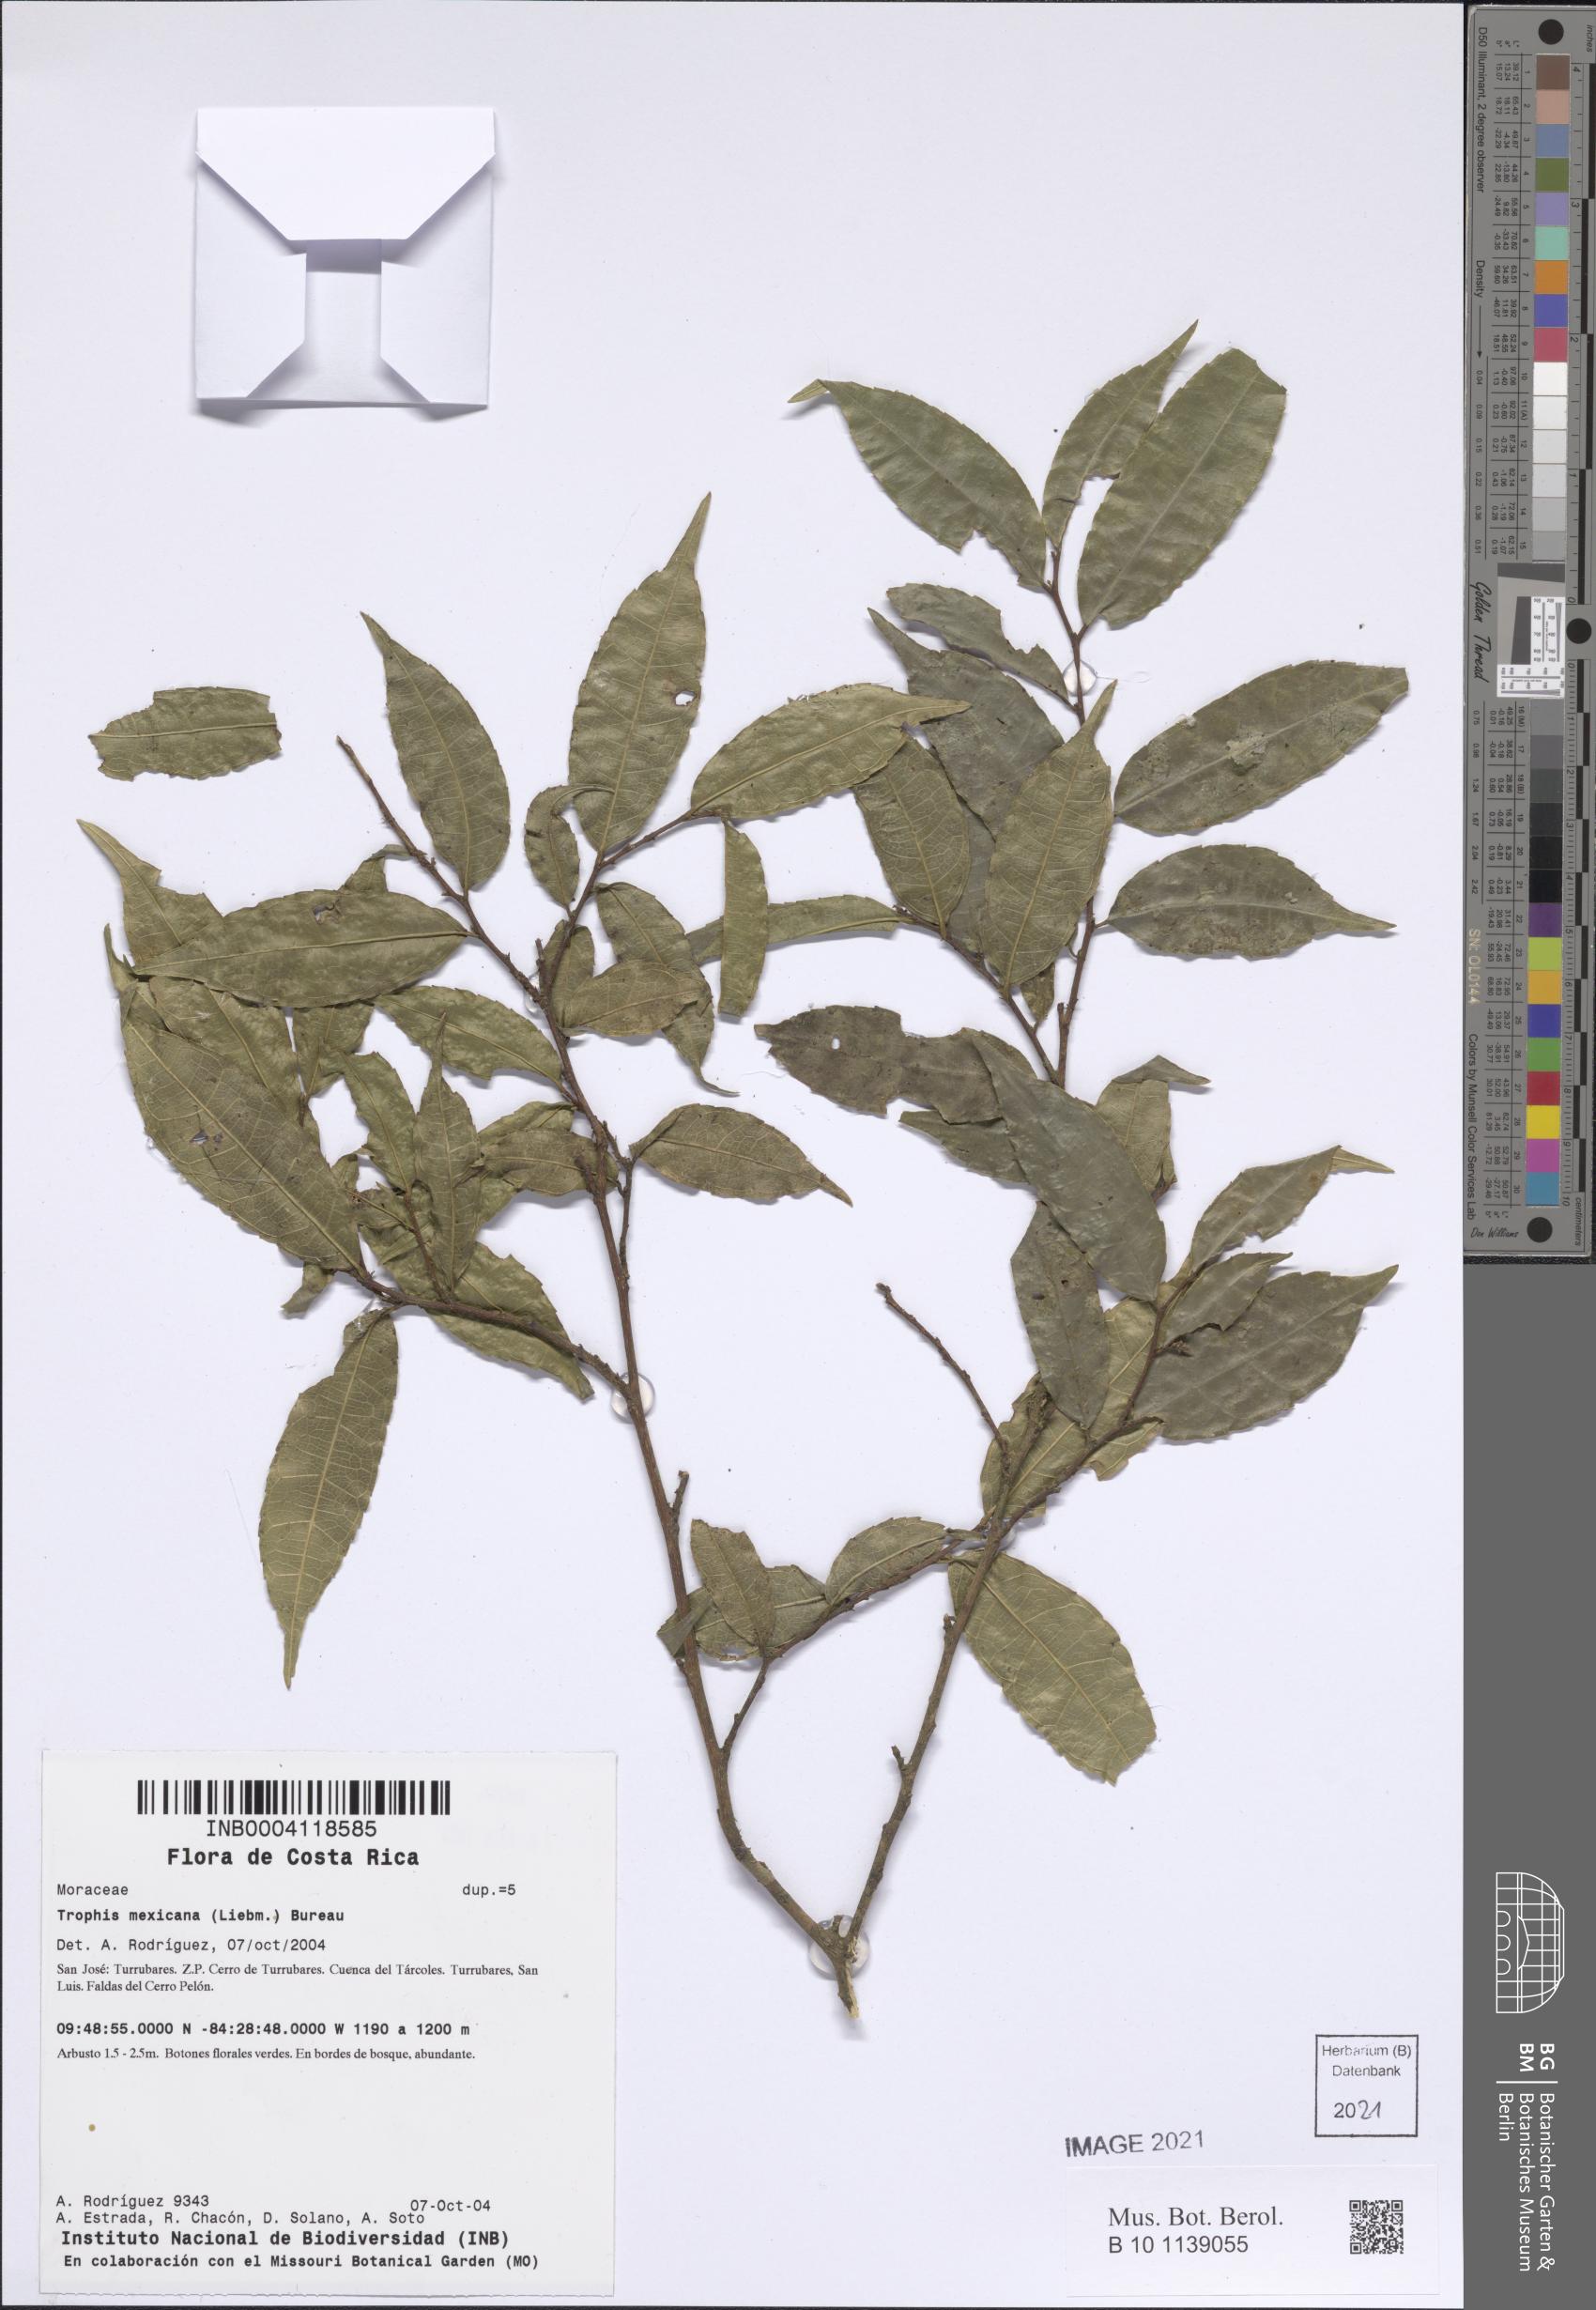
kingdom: Plantae
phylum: Tracheophyta
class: Magnoliopsida
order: Rosales
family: Moraceae
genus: Trophis
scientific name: Trophis mexicana
